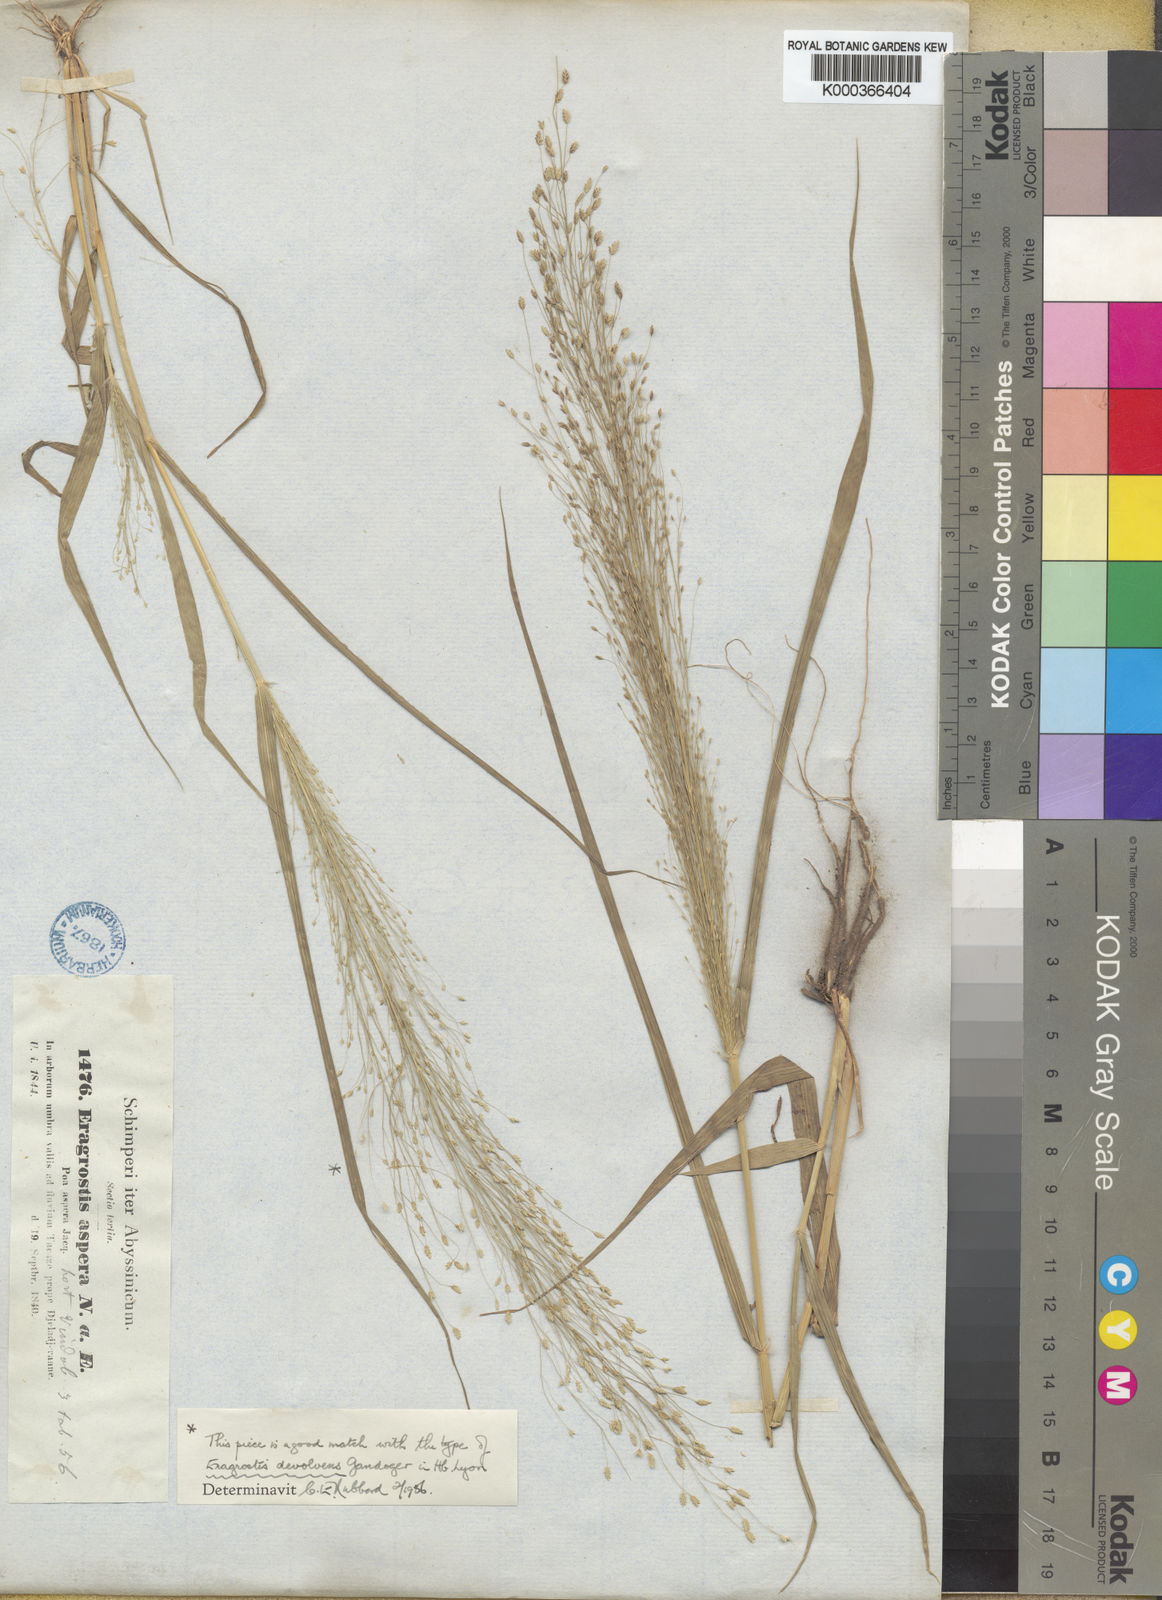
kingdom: Plantae
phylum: Tracheophyta
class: Liliopsida
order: Poales
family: Poaceae
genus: Eragrostis
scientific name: Eragrostis aspera
